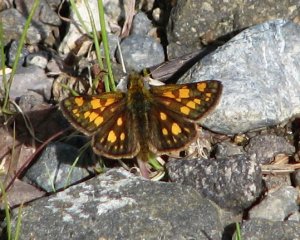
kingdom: Animalia
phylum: Arthropoda
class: Insecta
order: Lepidoptera
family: Hesperiidae
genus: Carterocephalus
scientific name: Carterocephalus palaemon
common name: Chequered Skipper
